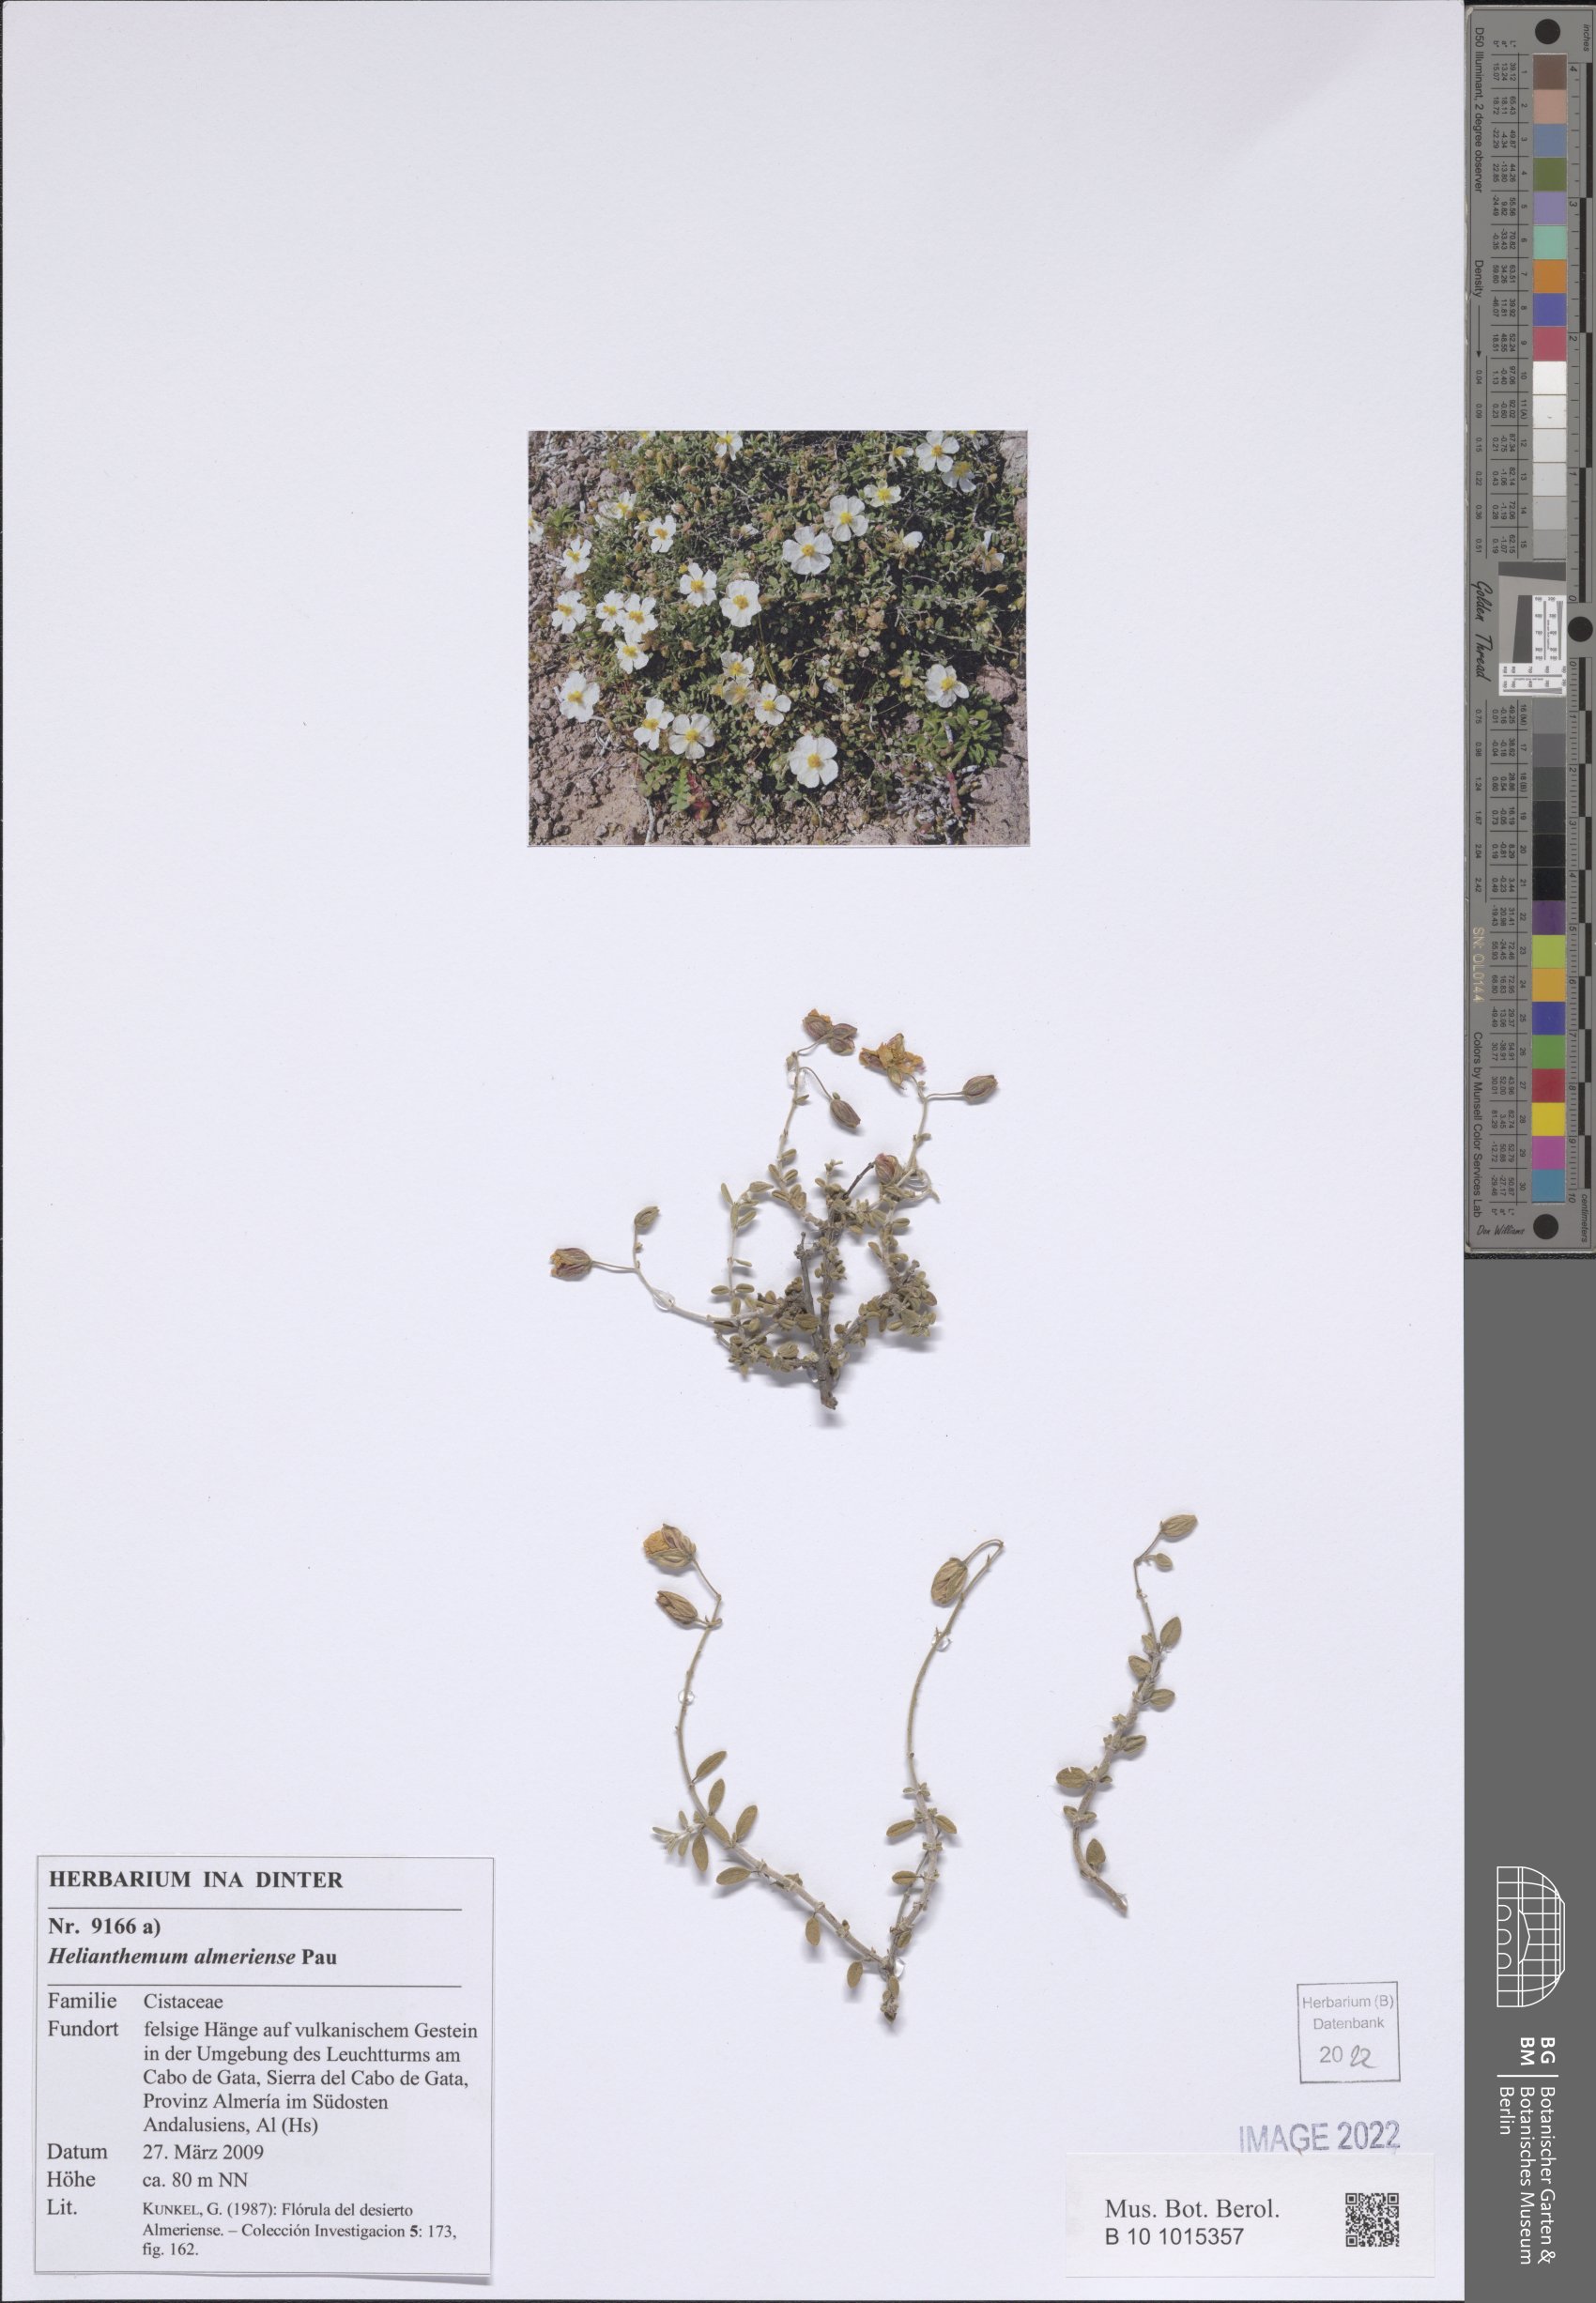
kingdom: Plantae
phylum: Tracheophyta
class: Magnoliopsida
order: Malvales
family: Cistaceae
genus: Helianthemum
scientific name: Helianthemum almeriense
